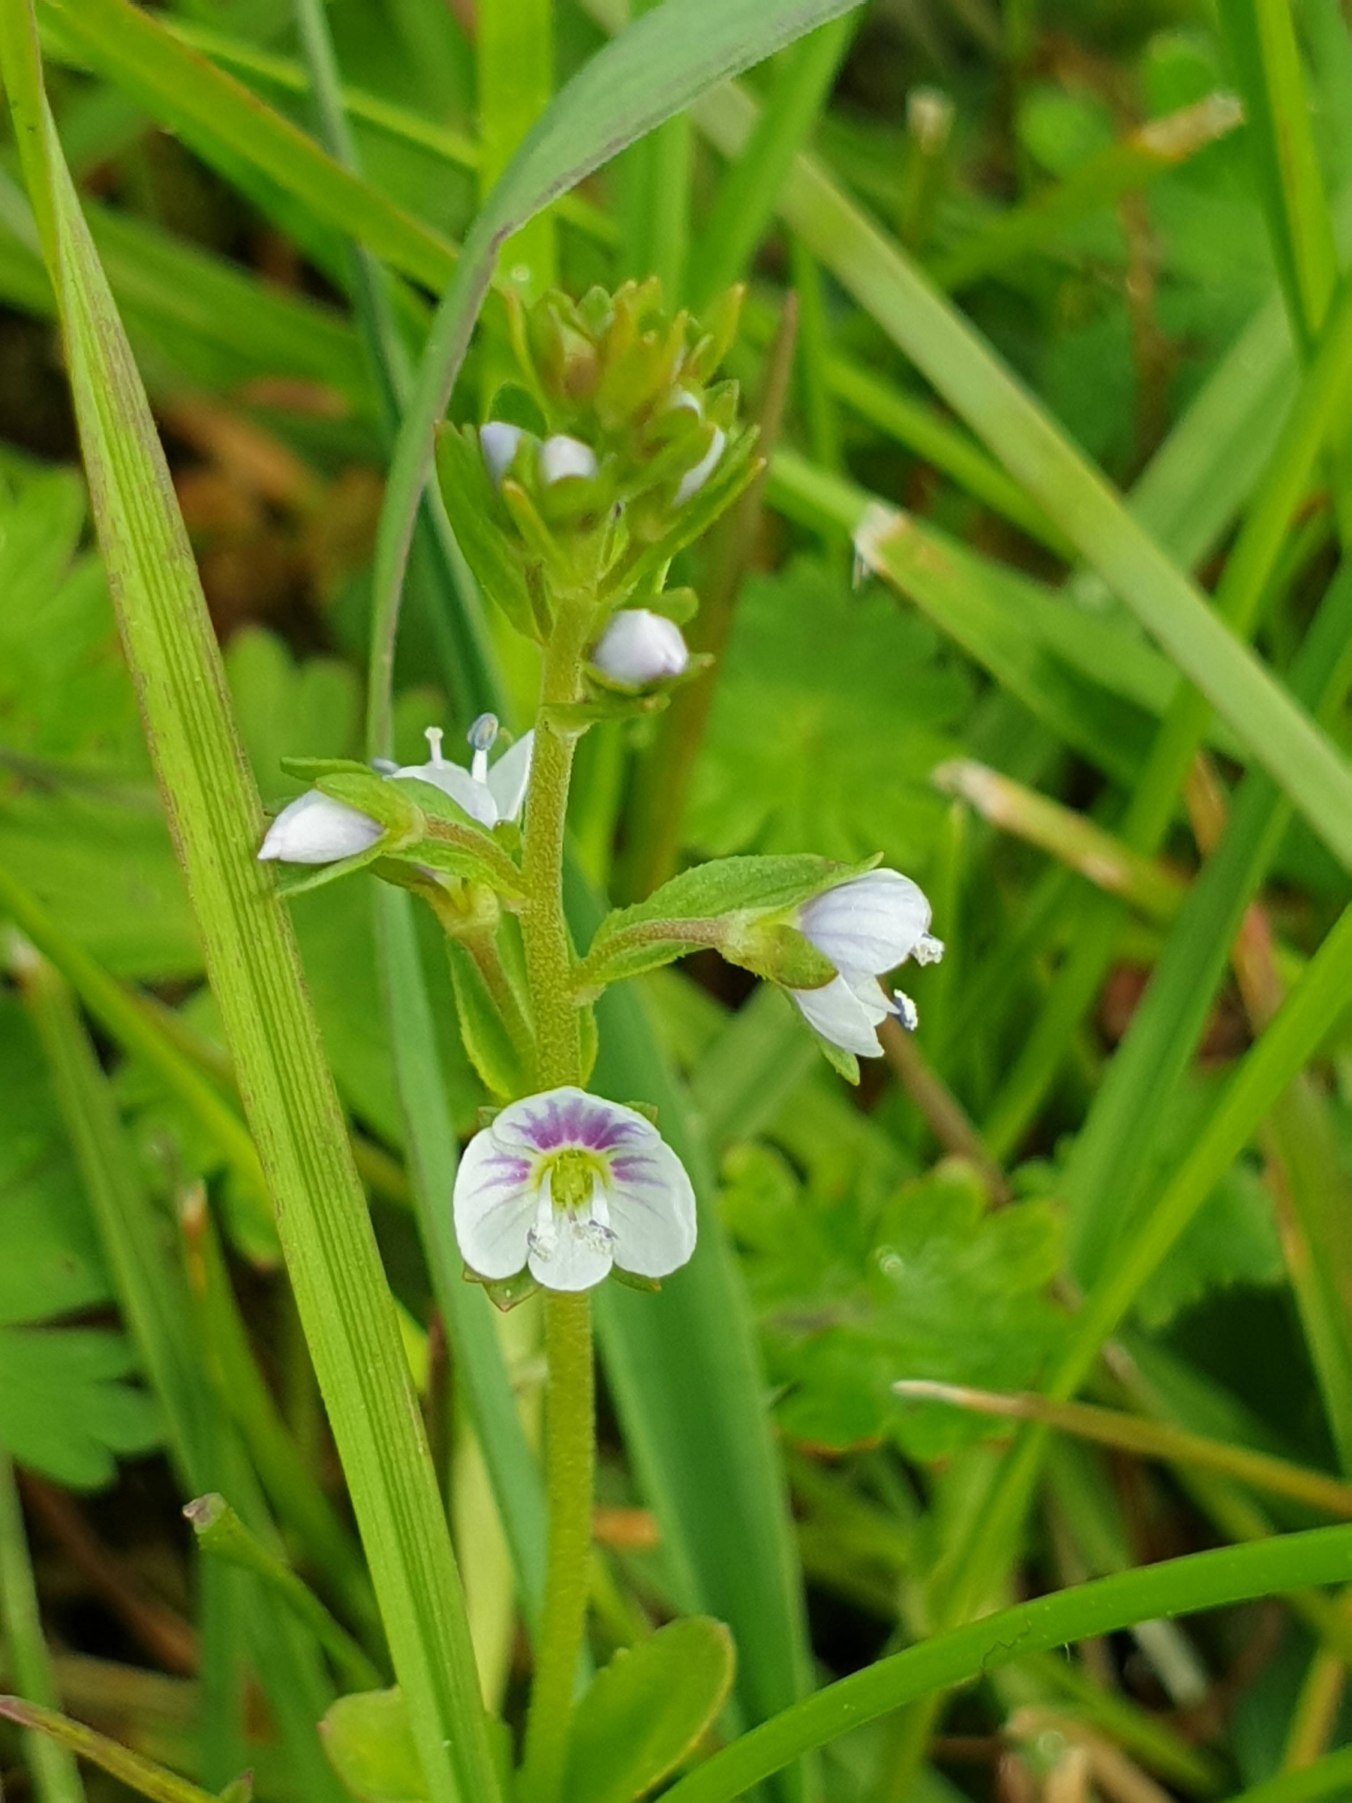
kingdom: Plantae
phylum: Tracheophyta
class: Magnoliopsida
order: Lamiales
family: Plantaginaceae
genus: Veronica
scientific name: Veronica serpyllifolia
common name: Glat ærenpris
